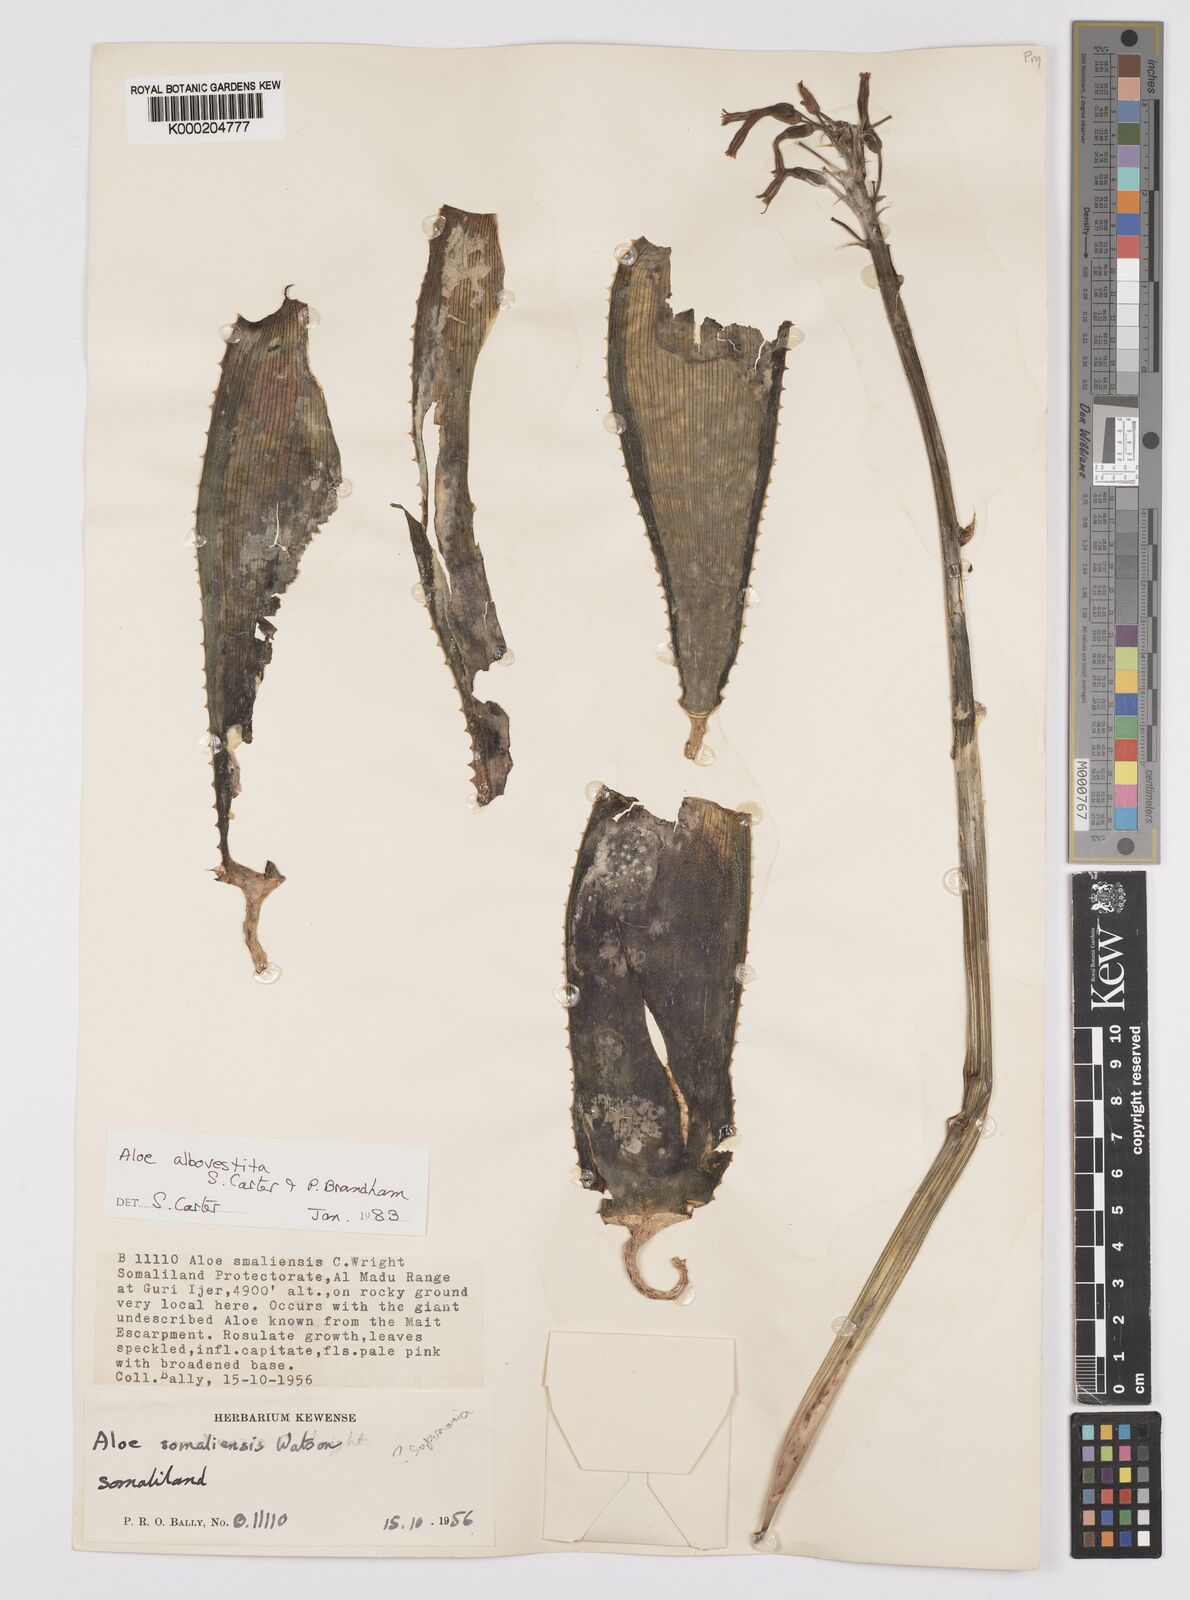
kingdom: Plantae
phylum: Tracheophyta
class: Liliopsida
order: Asparagales
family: Asphodelaceae
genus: Aloe
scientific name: Aloe albovestita
